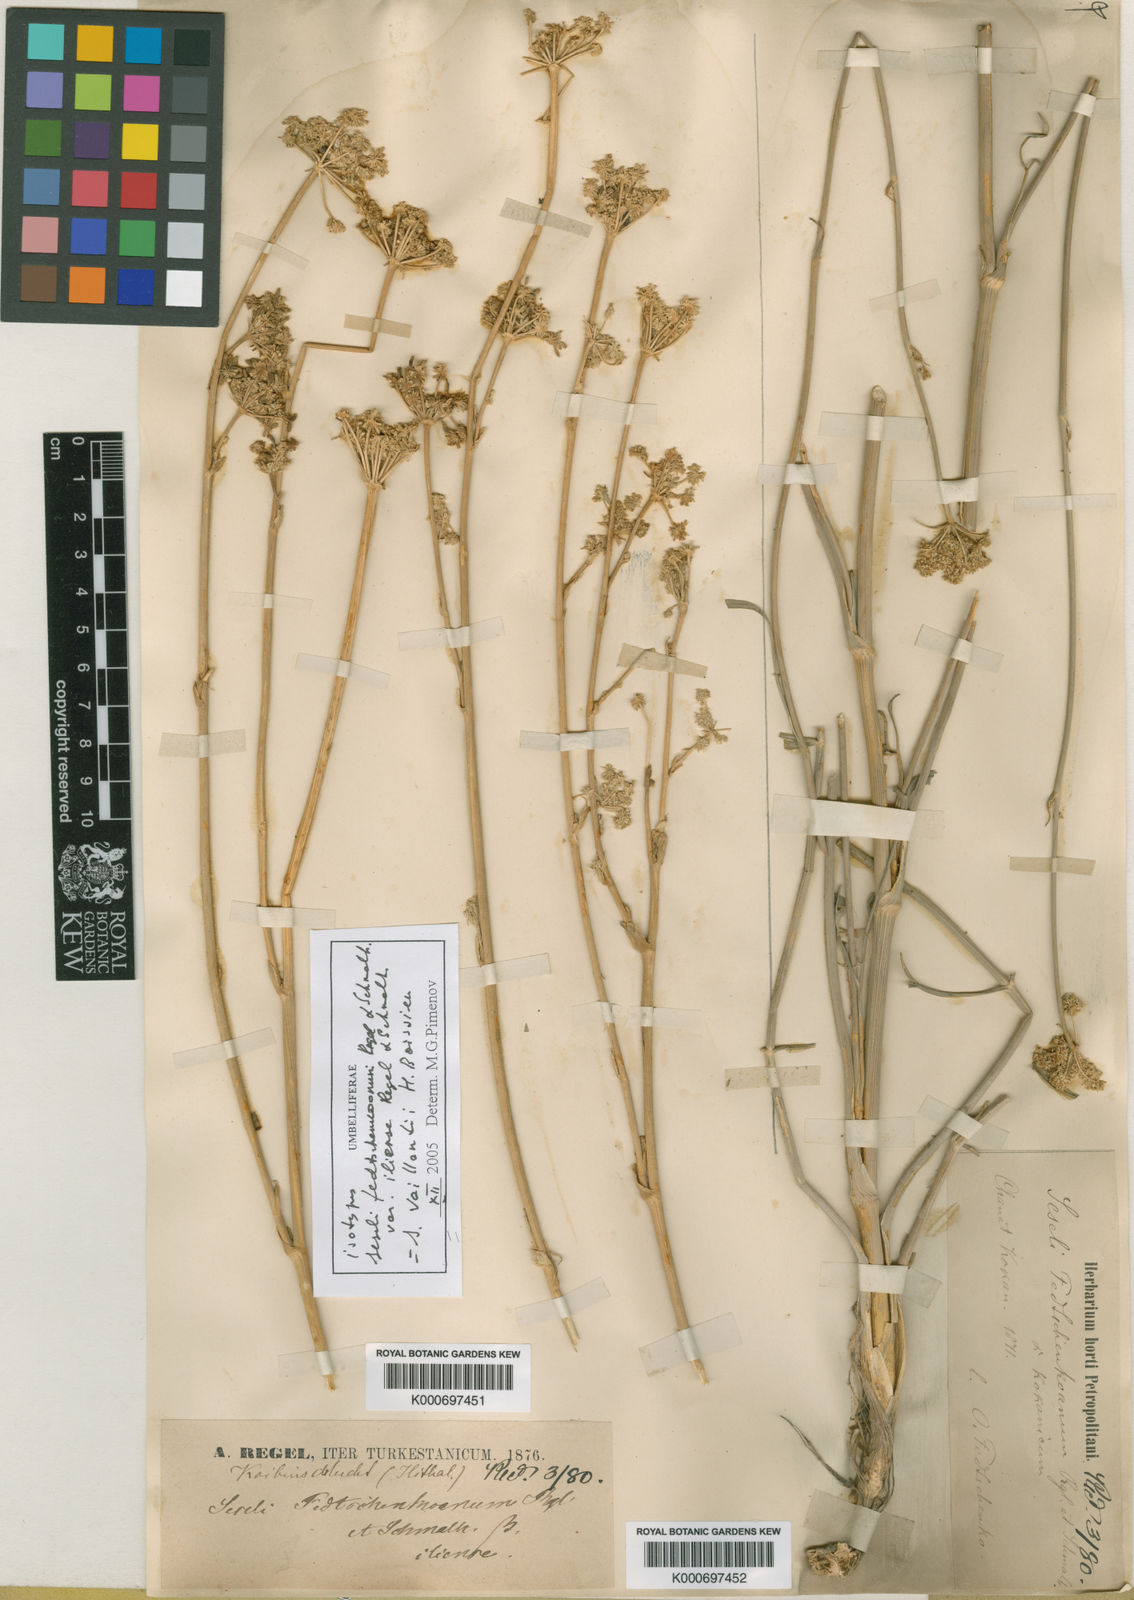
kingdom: Plantae
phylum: Tracheophyta
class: Magnoliopsida
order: Apiales
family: Apiaceae
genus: Seseli
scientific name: Seseli lehmannianum
